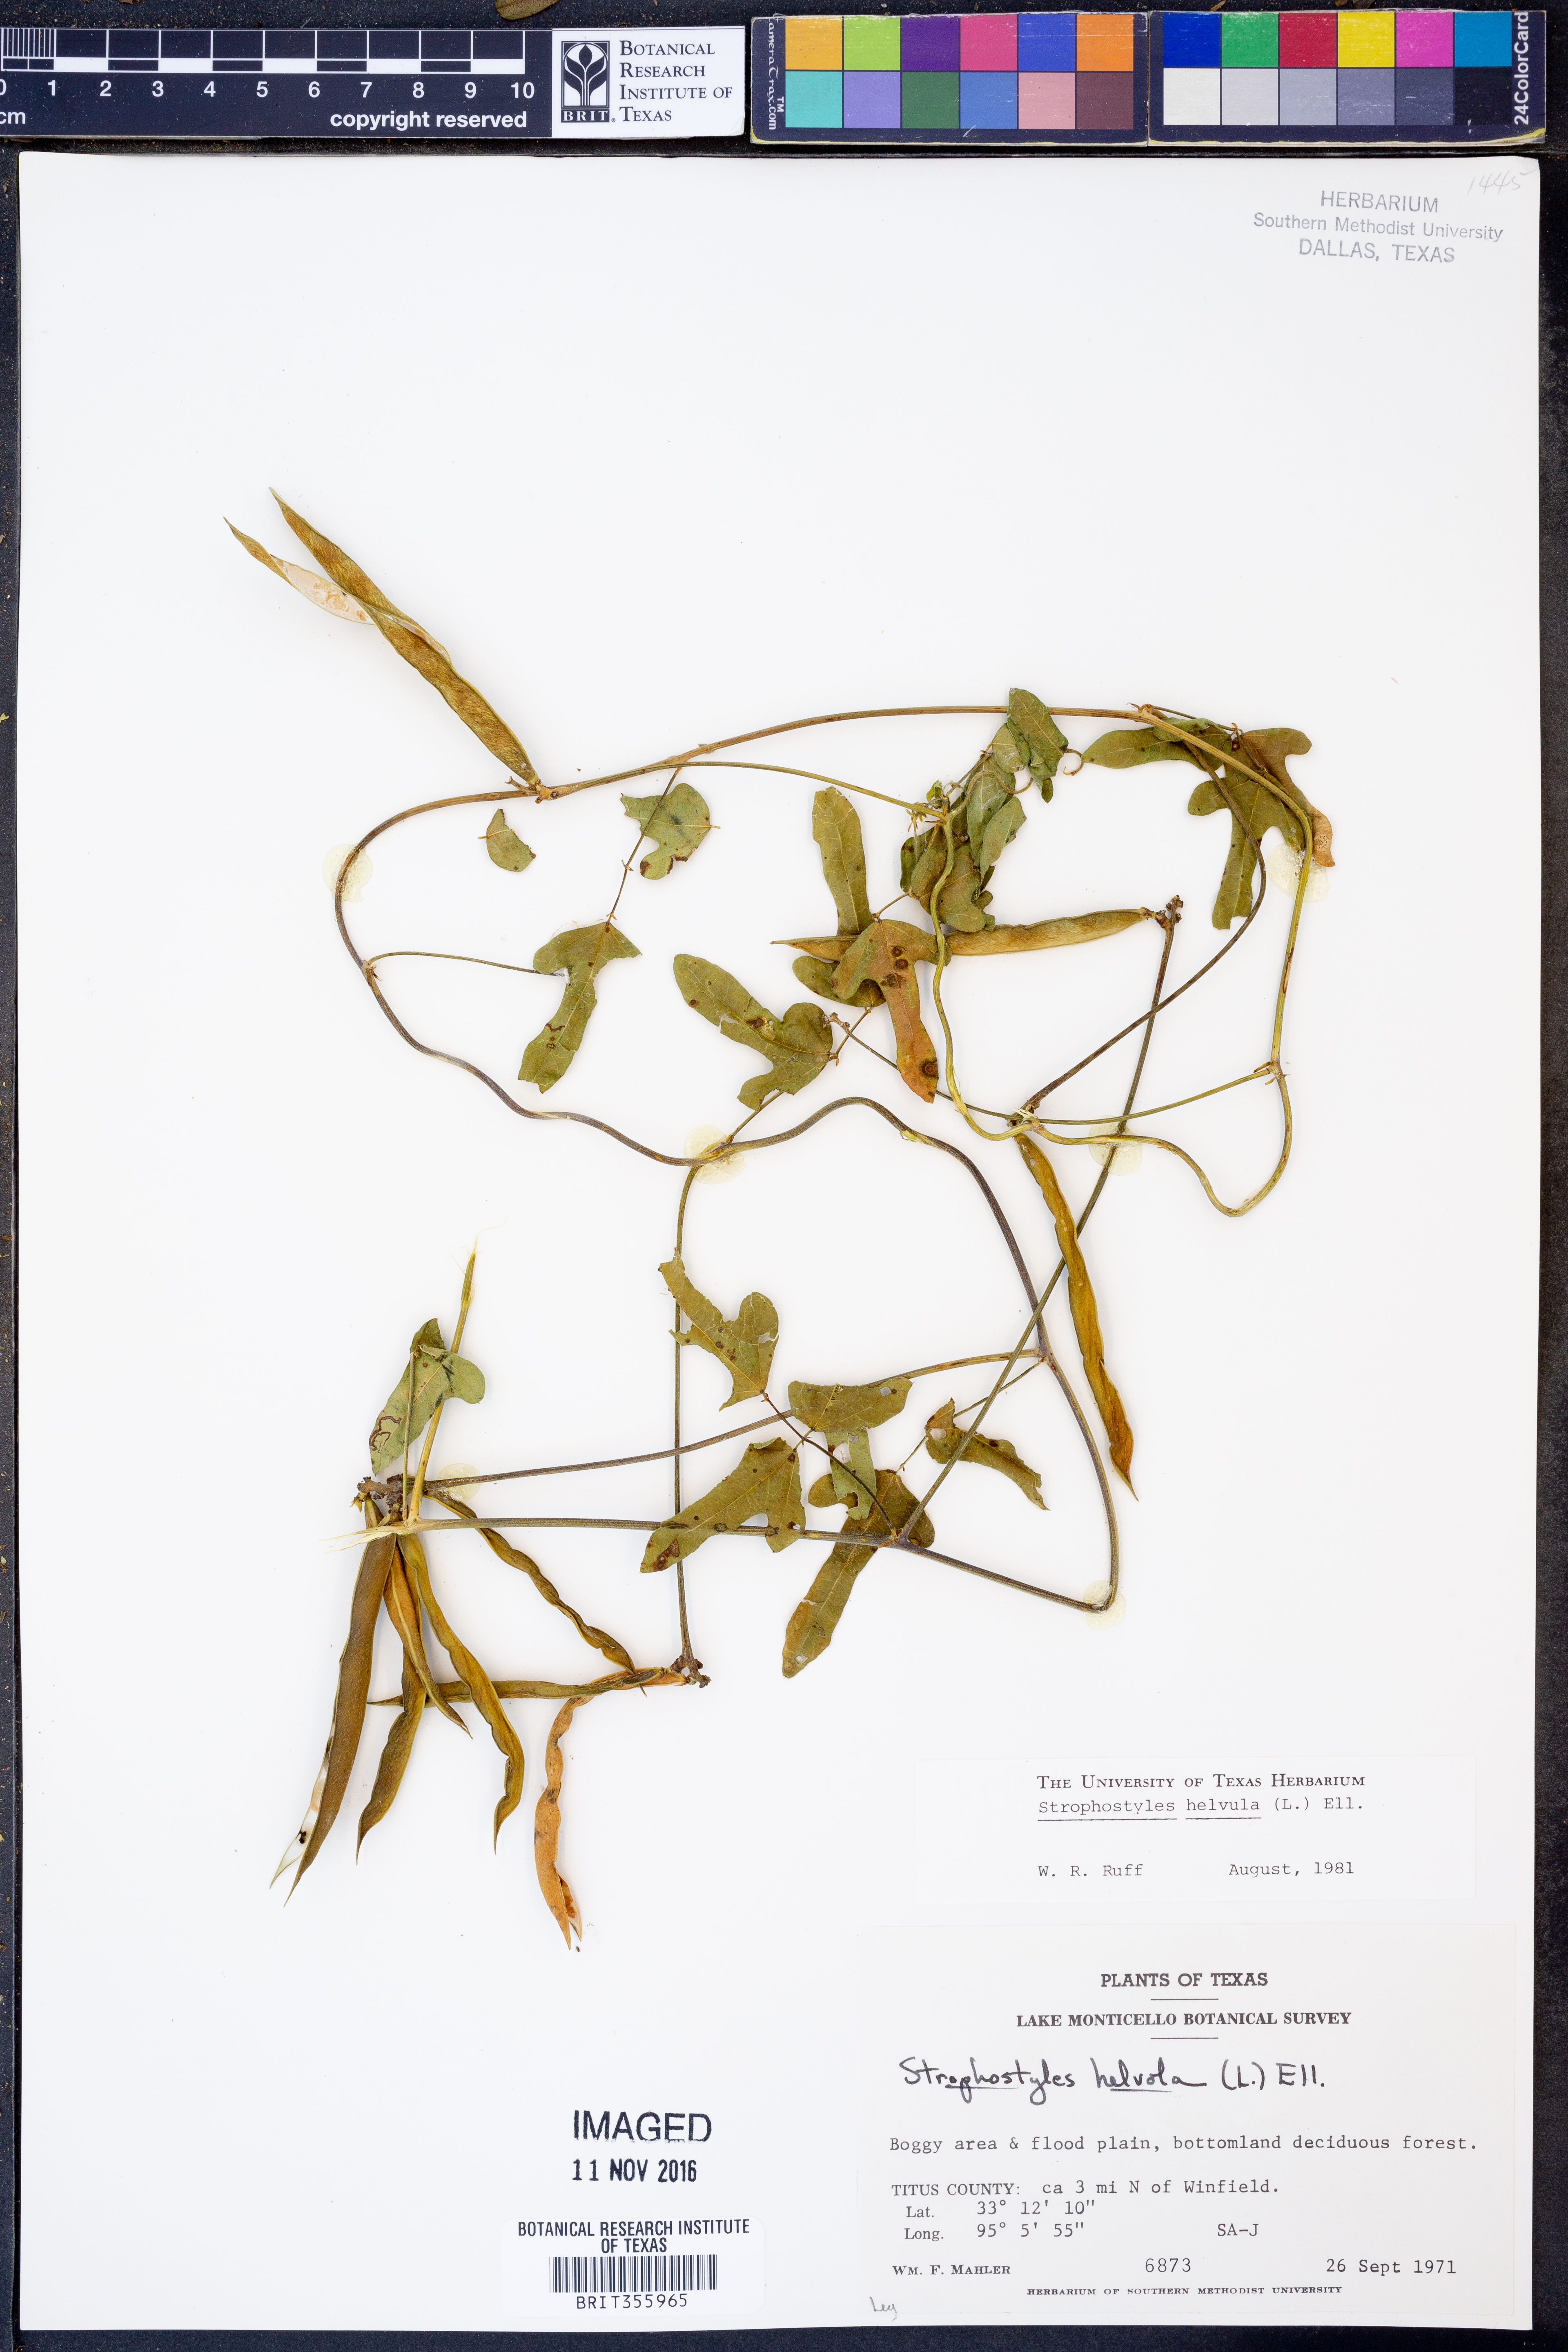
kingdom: Plantae
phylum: Tracheophyta
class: Magnoliopsida
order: Fabales
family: Fabaceae
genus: Strophostyles
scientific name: Strophostyles helvula
